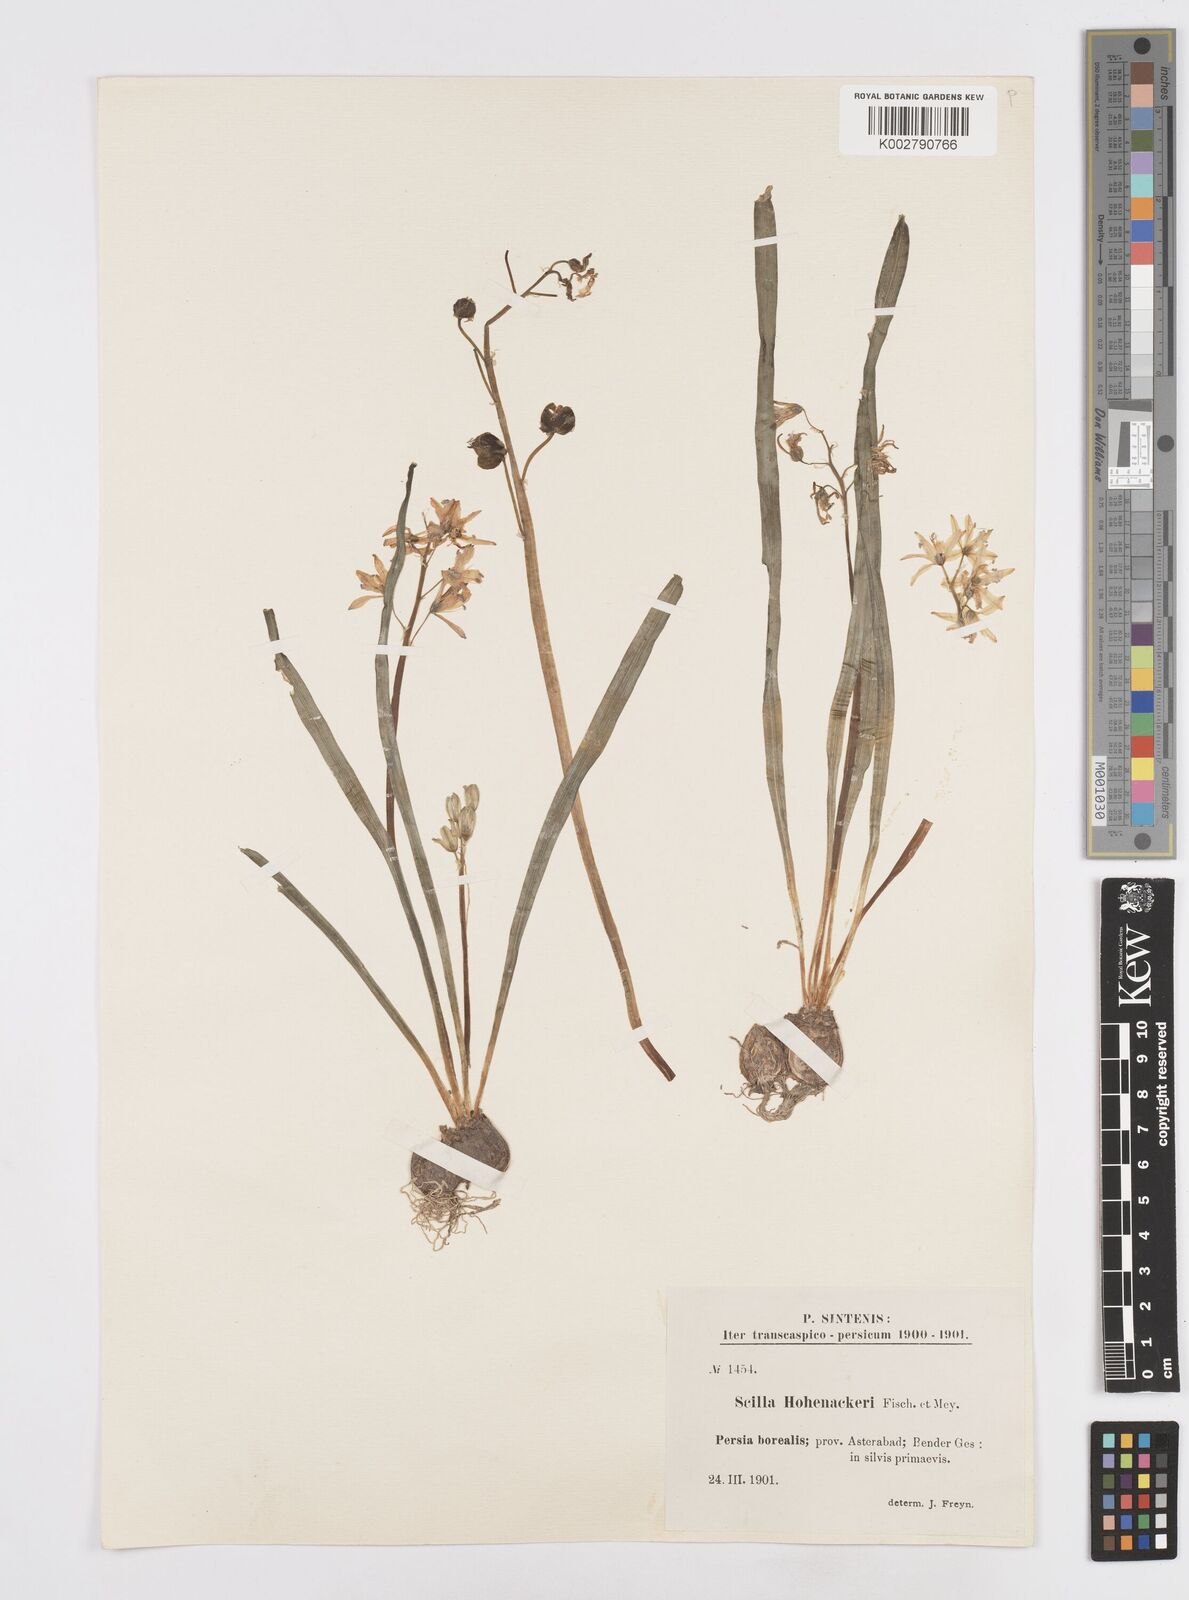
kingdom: Plantae
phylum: Tracheophyta
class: Liliopsida
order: Asparagales
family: Asparagaceae
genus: Fessia
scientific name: Fessia hohenackeri
